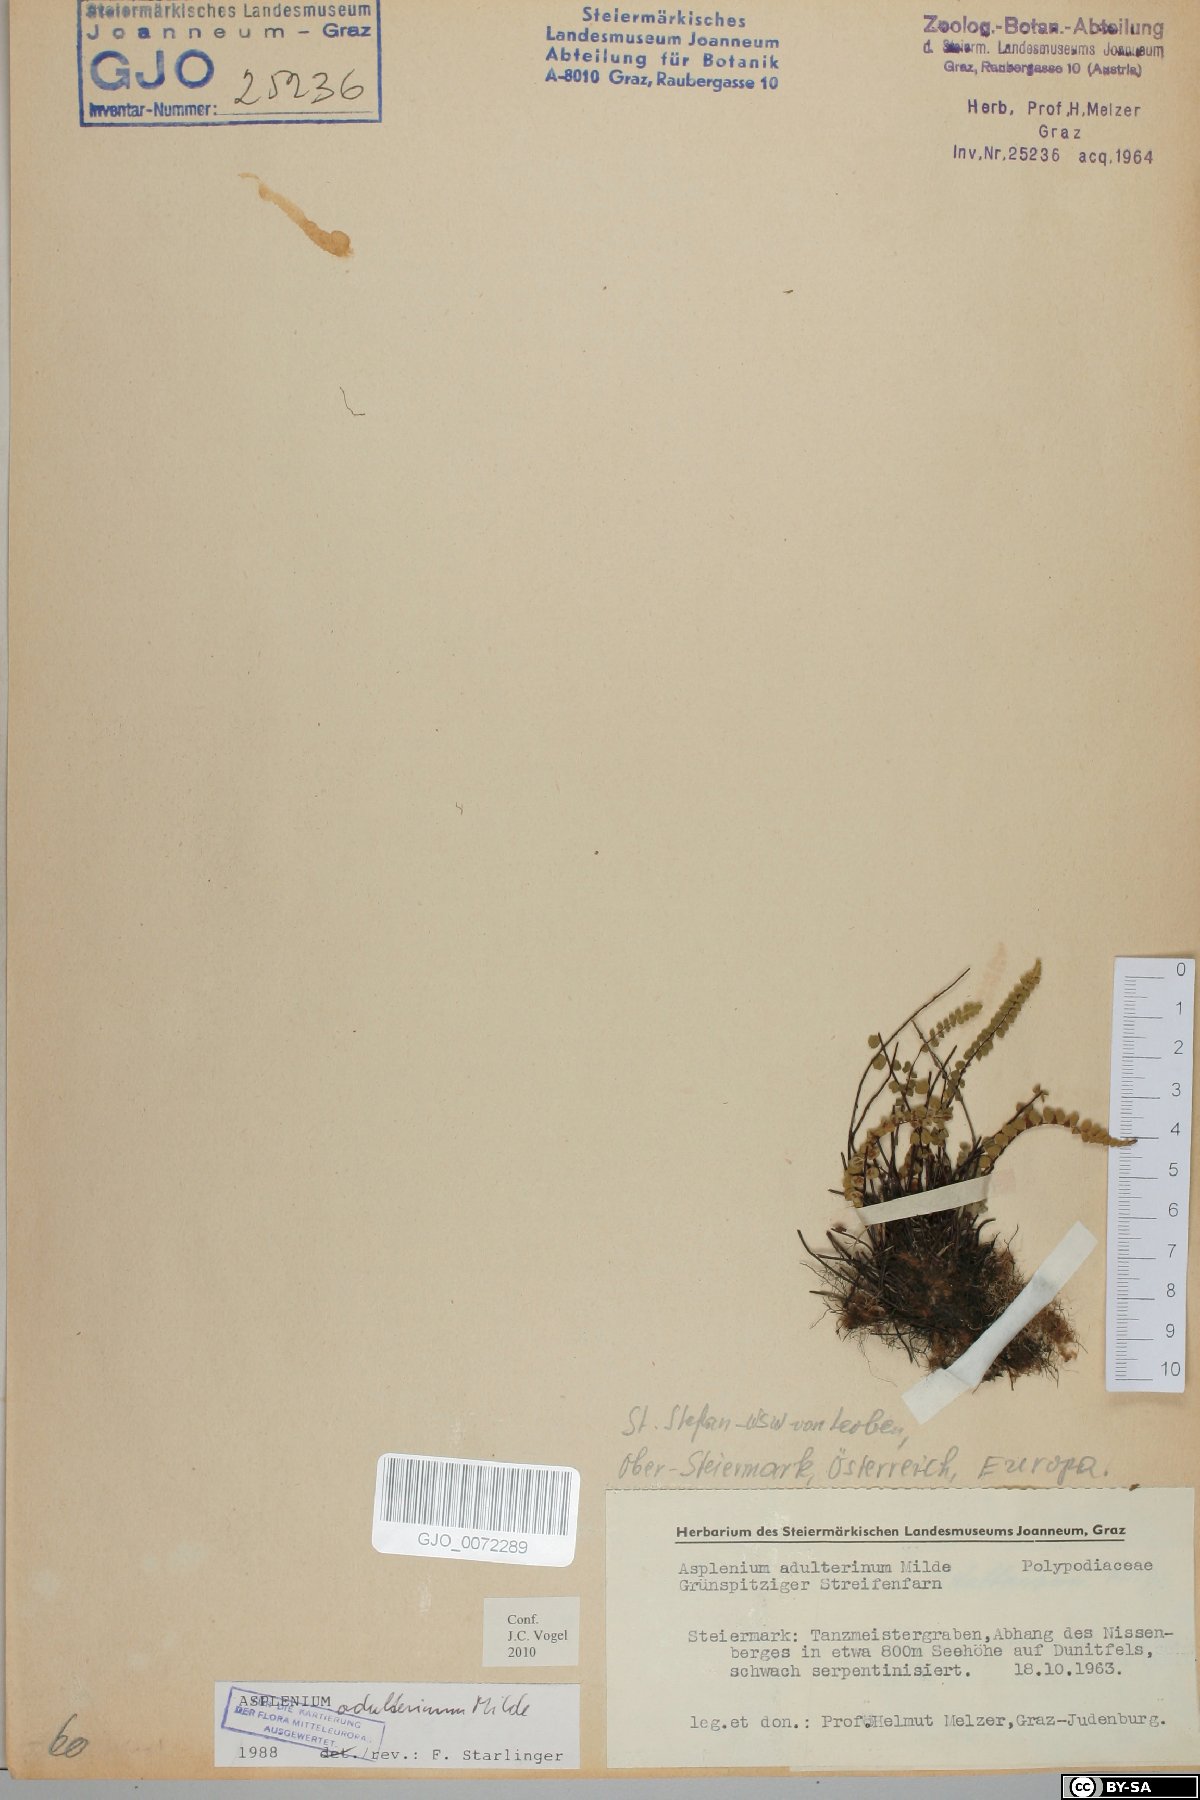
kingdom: Plantae
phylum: Tracheophyta
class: Polypodiopsida
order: Polypodiales
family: Aspleniaceae
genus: Asplenium
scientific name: Asplenium adulterinum
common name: Adulterated spleenwort
